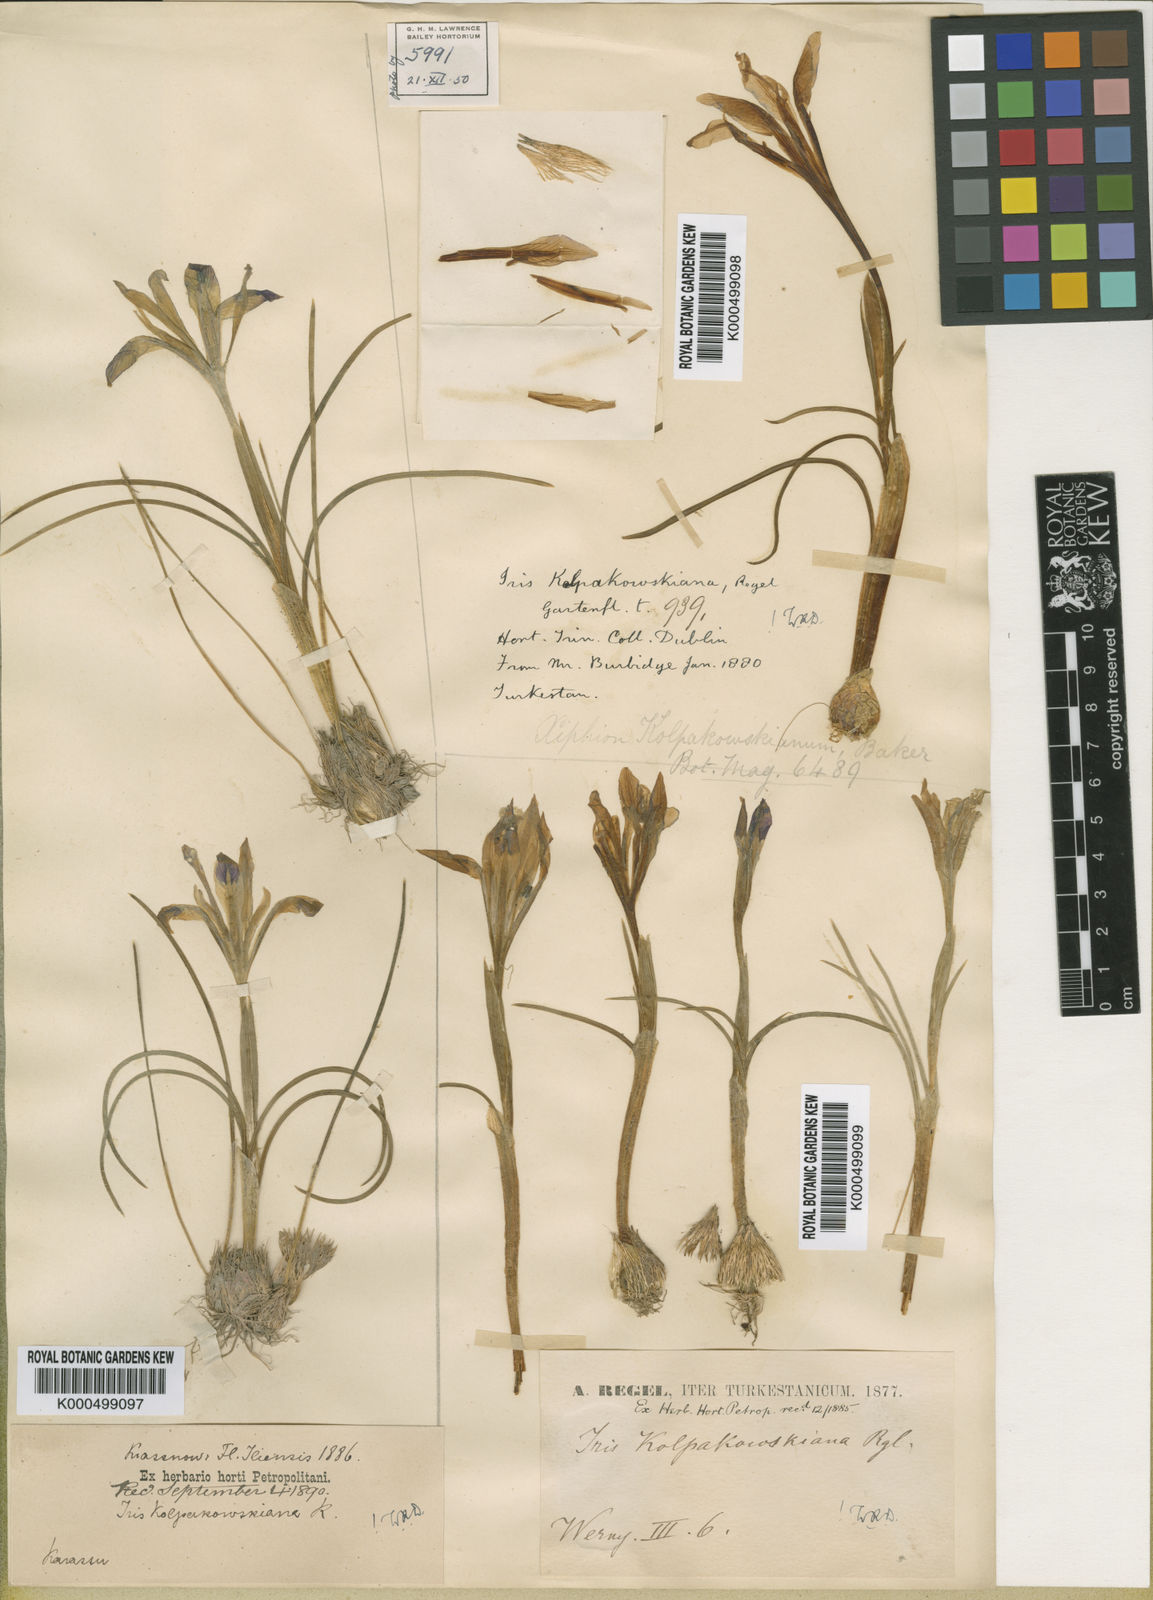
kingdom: Plantae
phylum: Tracheophyta
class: Liliopsida
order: Asparagales
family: Iridaceae
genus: Iris
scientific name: Iris kolpakowskiana
